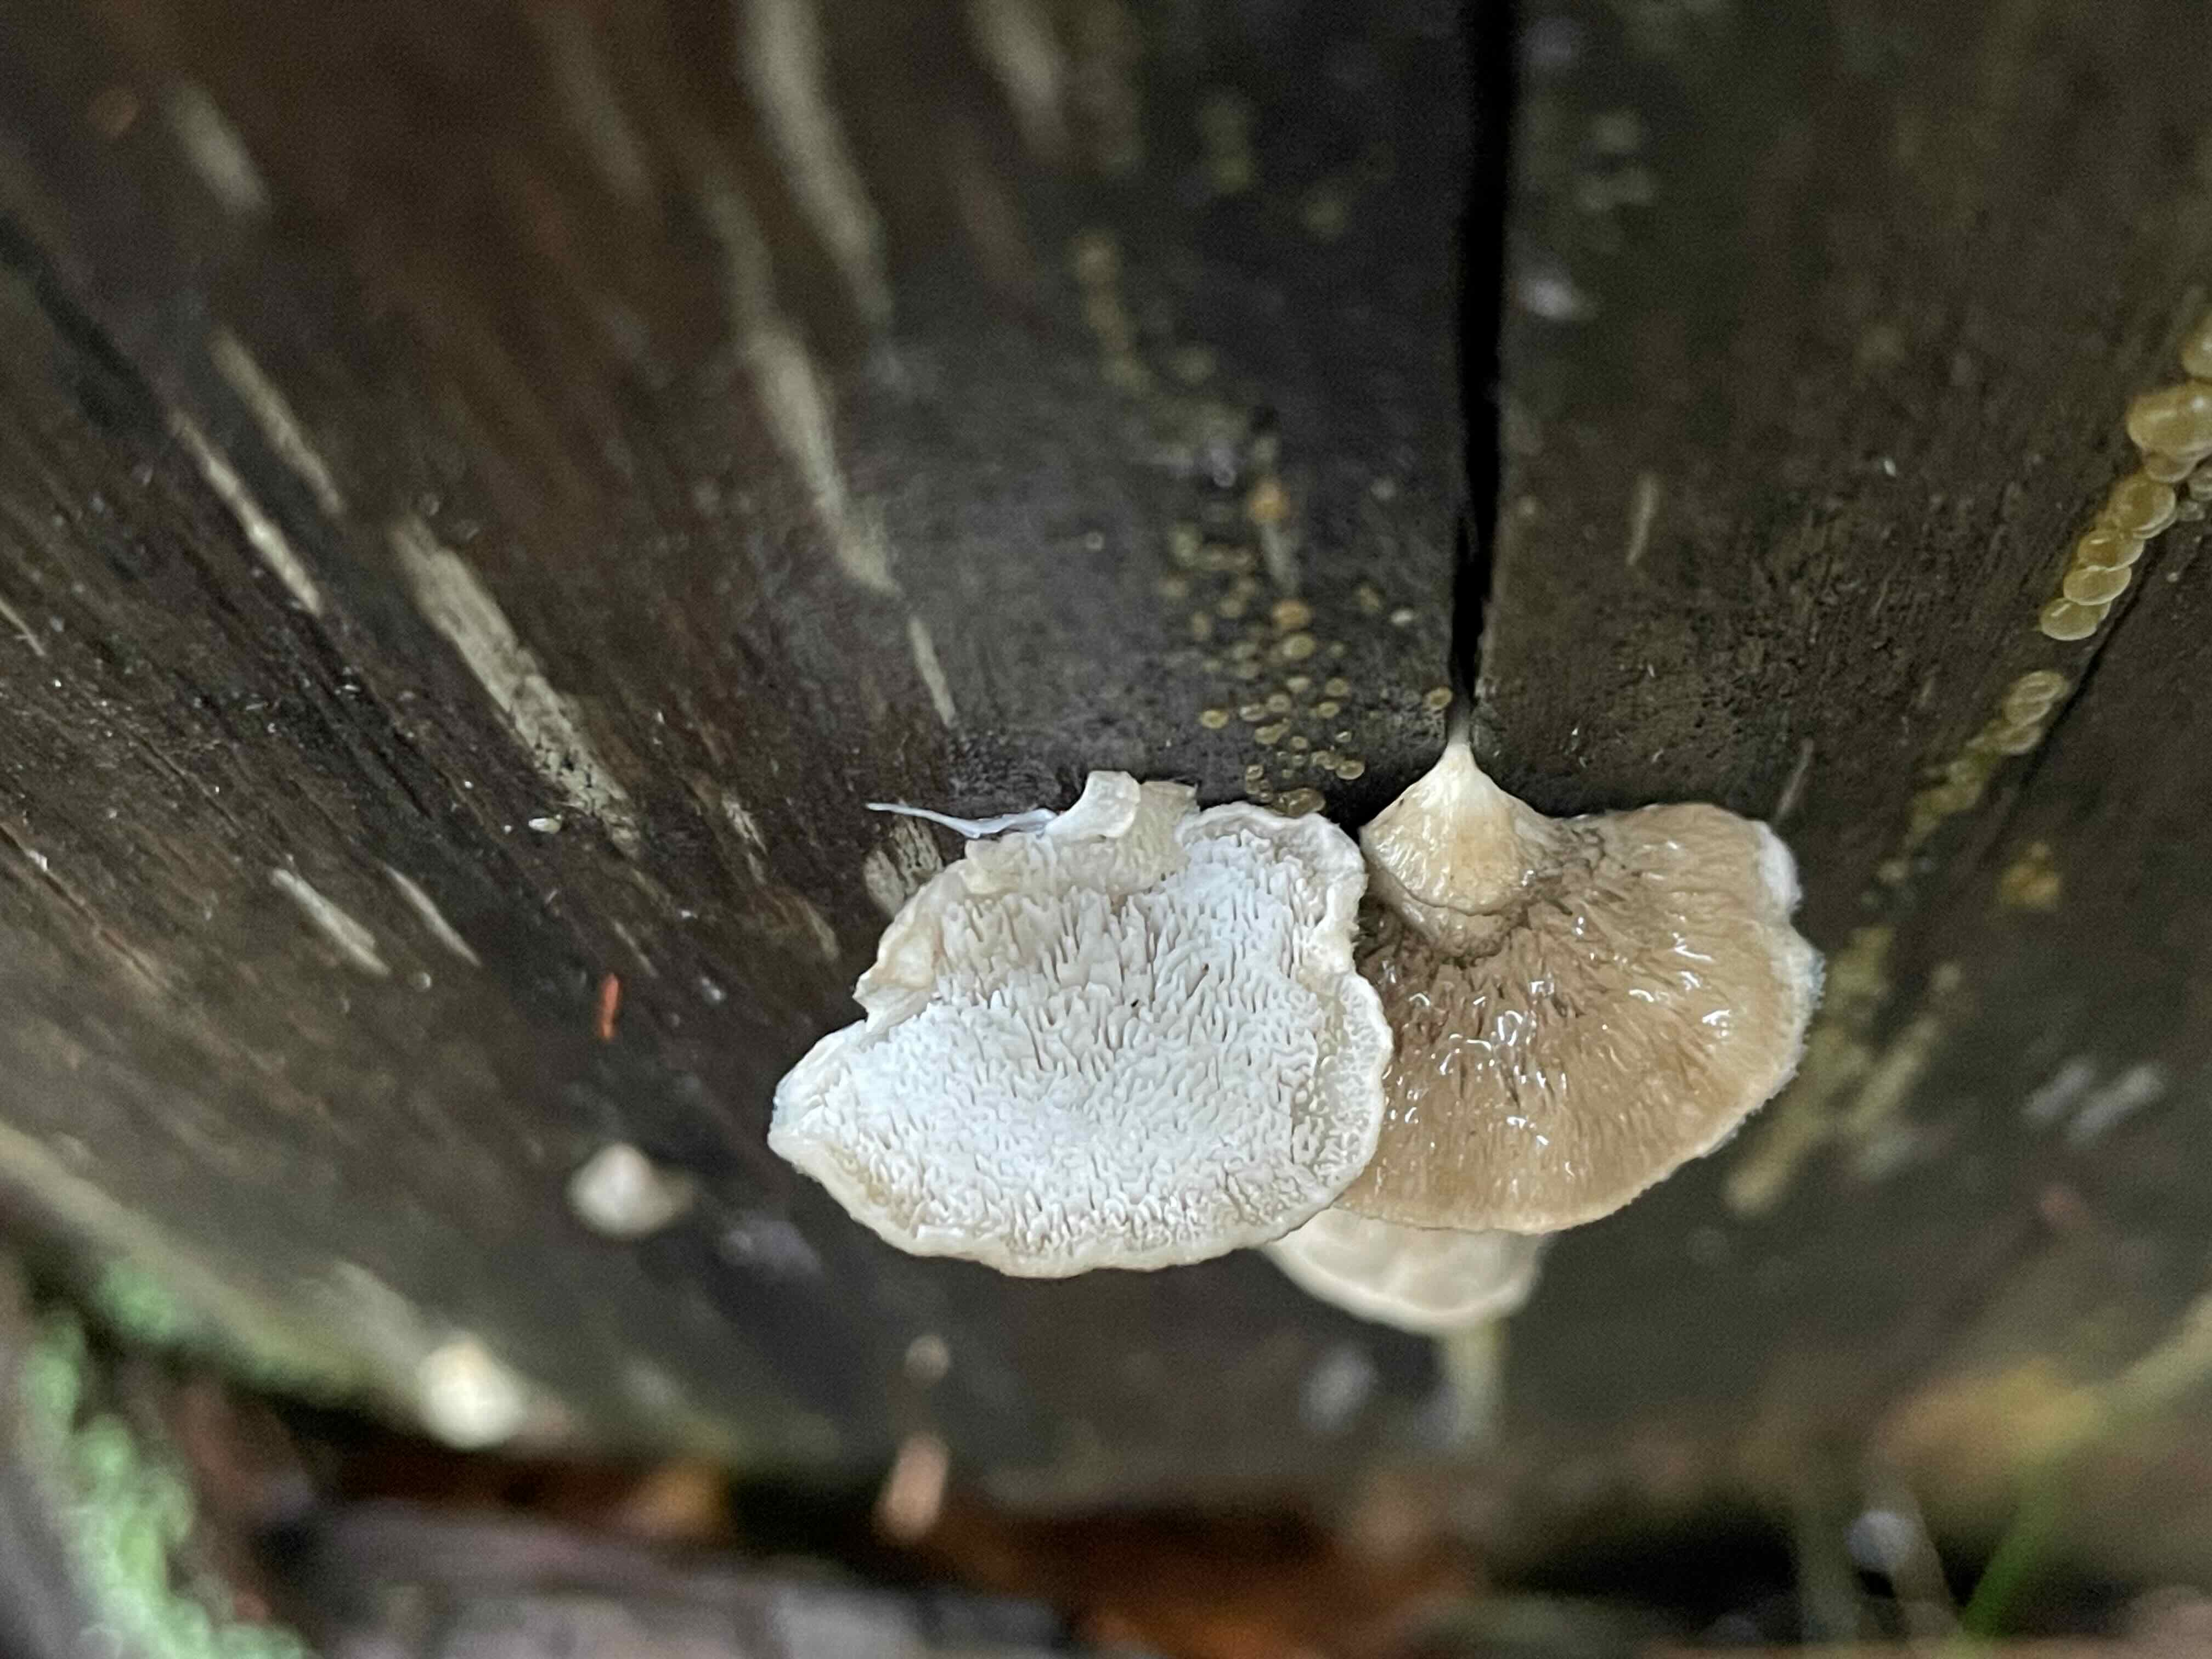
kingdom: Fungi
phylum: Basidiomycota
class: Agaricomycetes
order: Polyporales
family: Polyporaceae
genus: Cyanosporus
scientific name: Cyanosporus caesius
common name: blålig kødporesvamp
